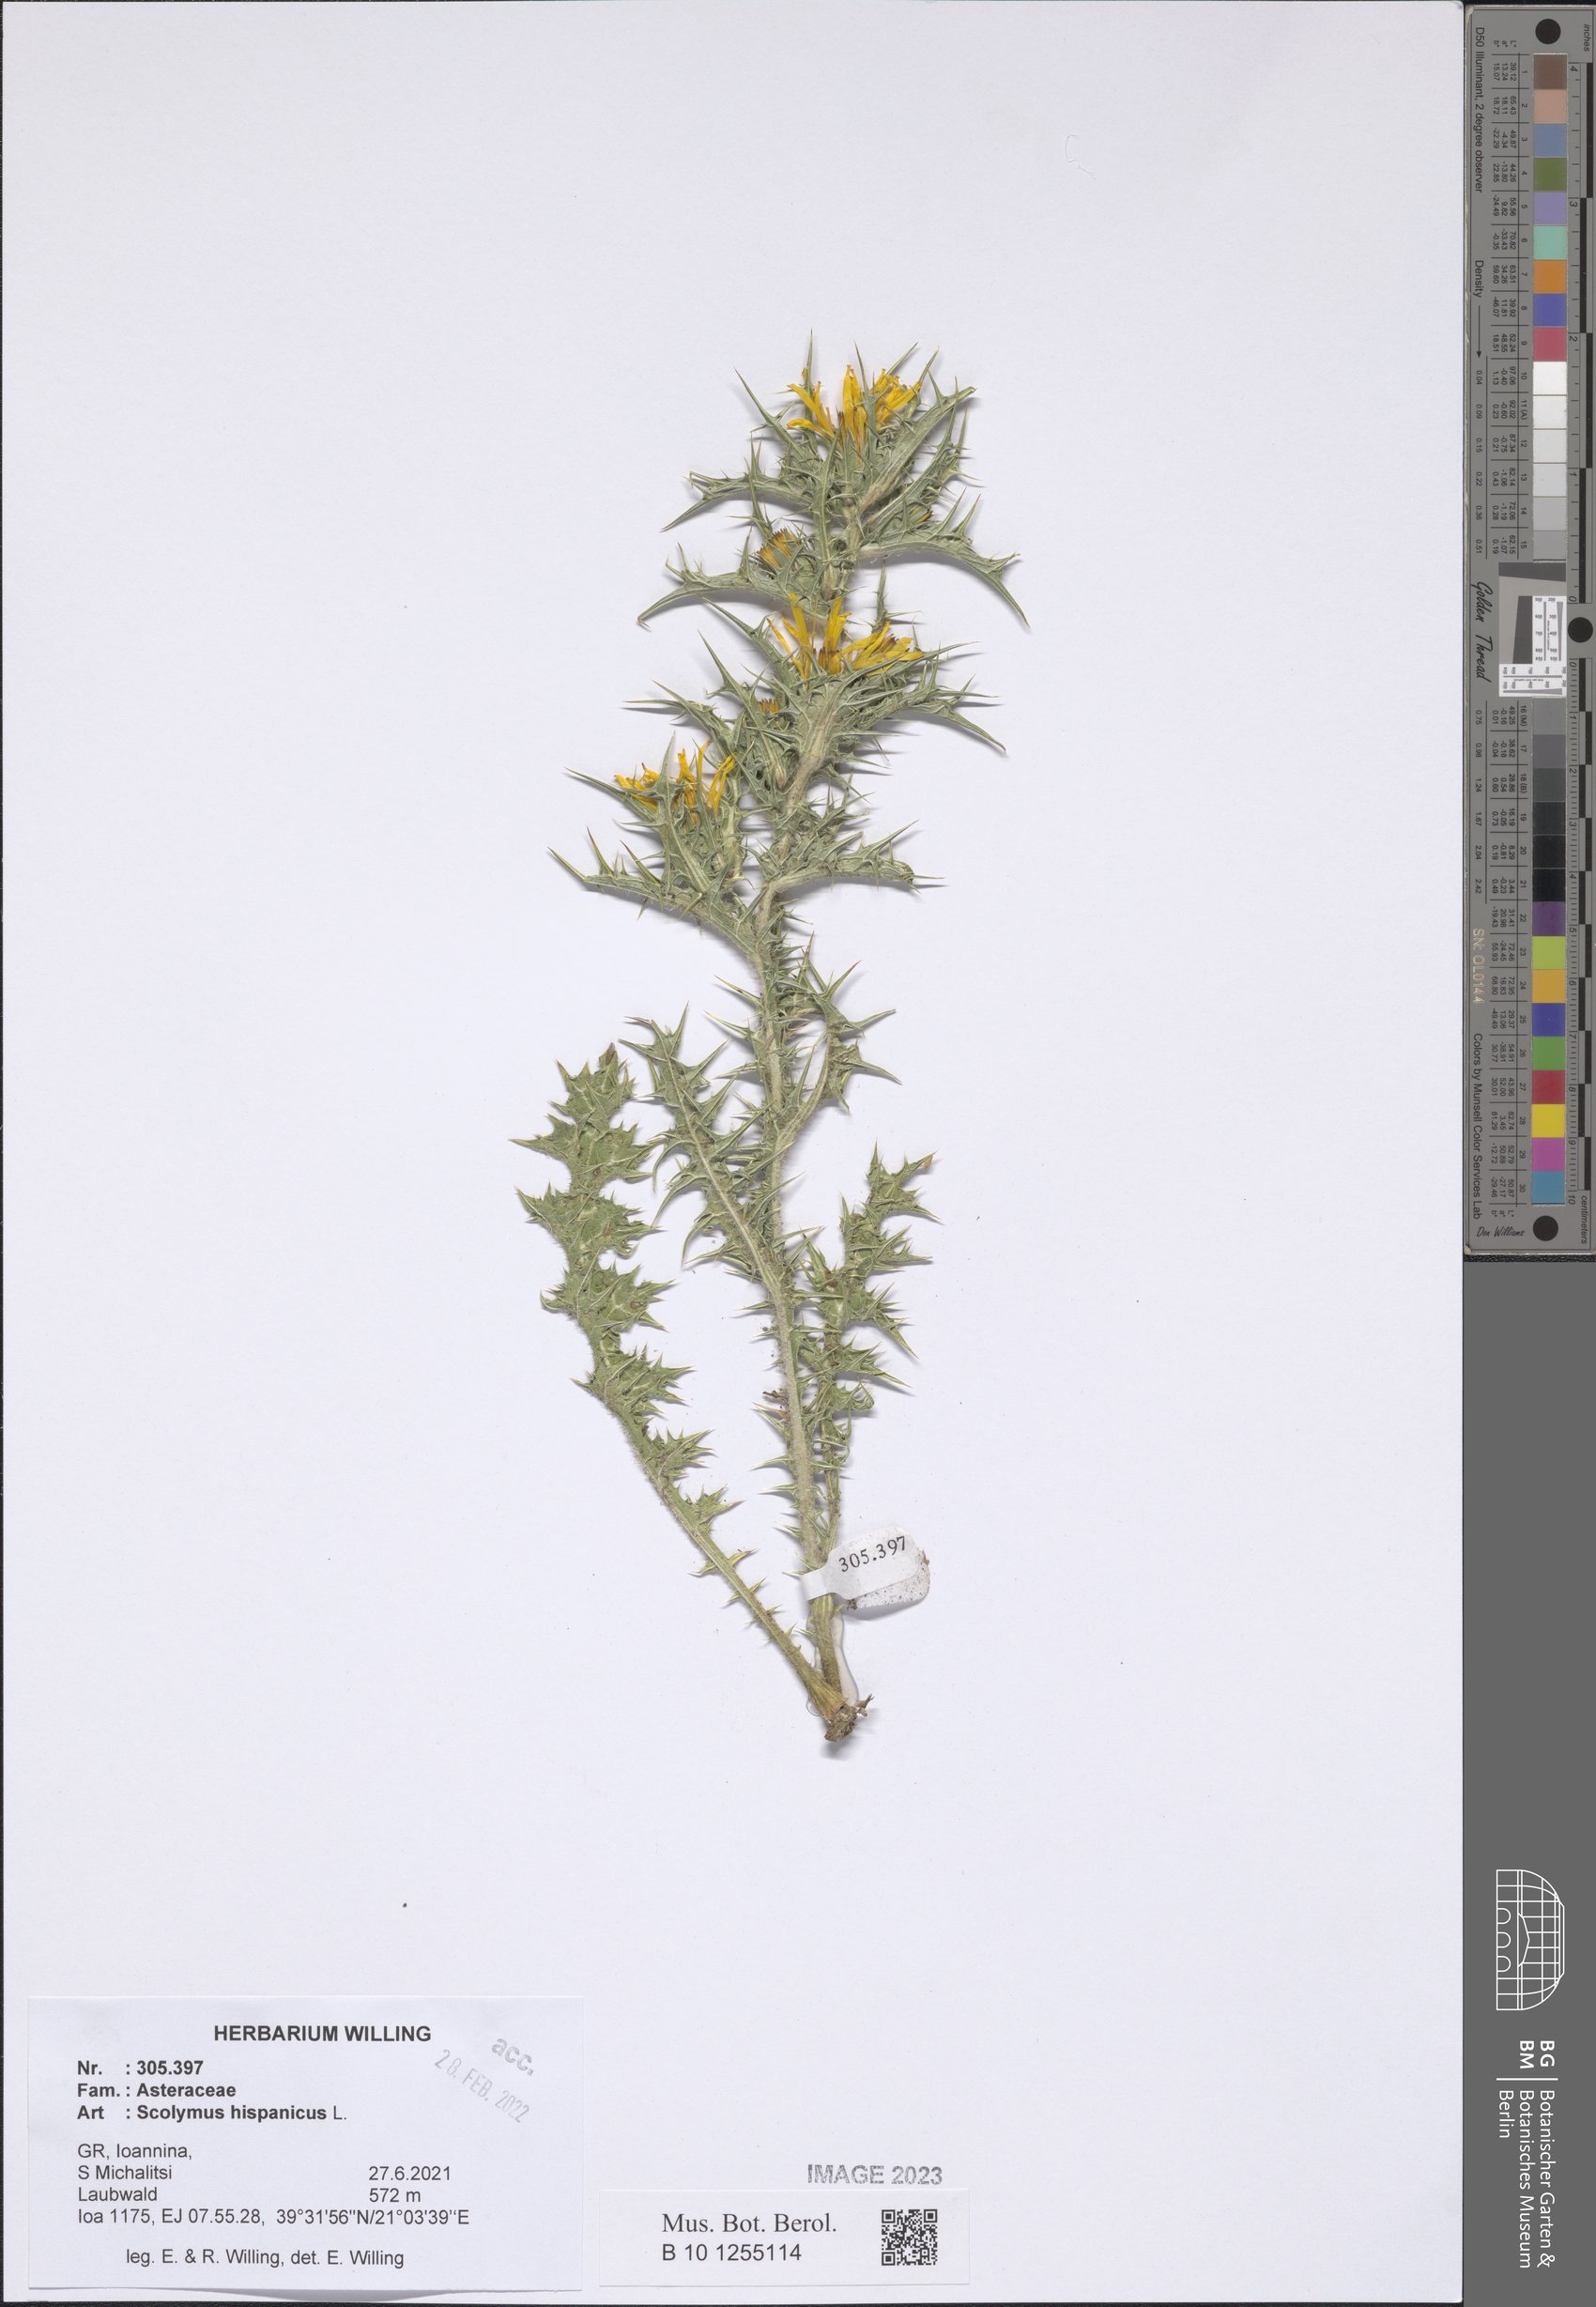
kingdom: Plantae
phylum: Tracheophyta
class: Magnoliopsida
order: Asterales
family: Asteraceae
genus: Scolymus
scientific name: Scolymus hispanicus
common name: Golden thistle
